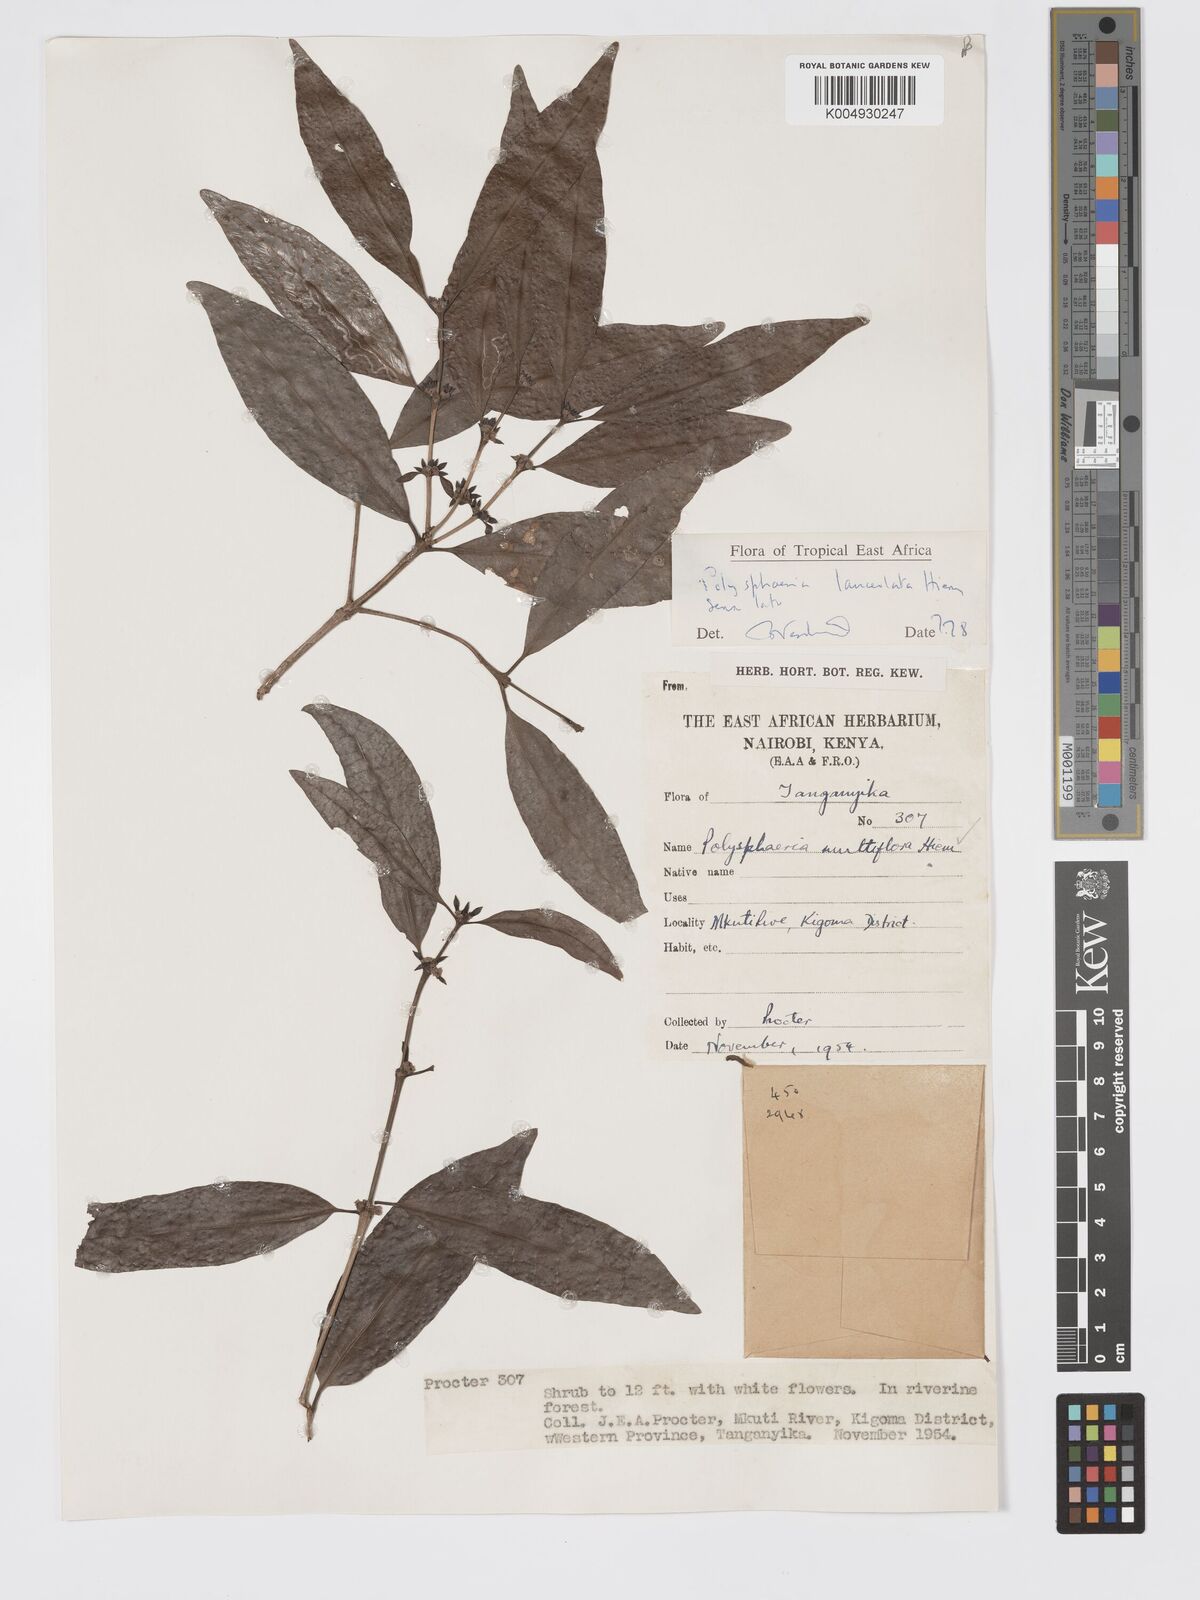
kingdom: Plantae
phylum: Tracheophyta
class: Magnoliopsida
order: Gentianales
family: Rubiaceae
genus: Polysphaeria
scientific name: Polysphaeria lanceolata
